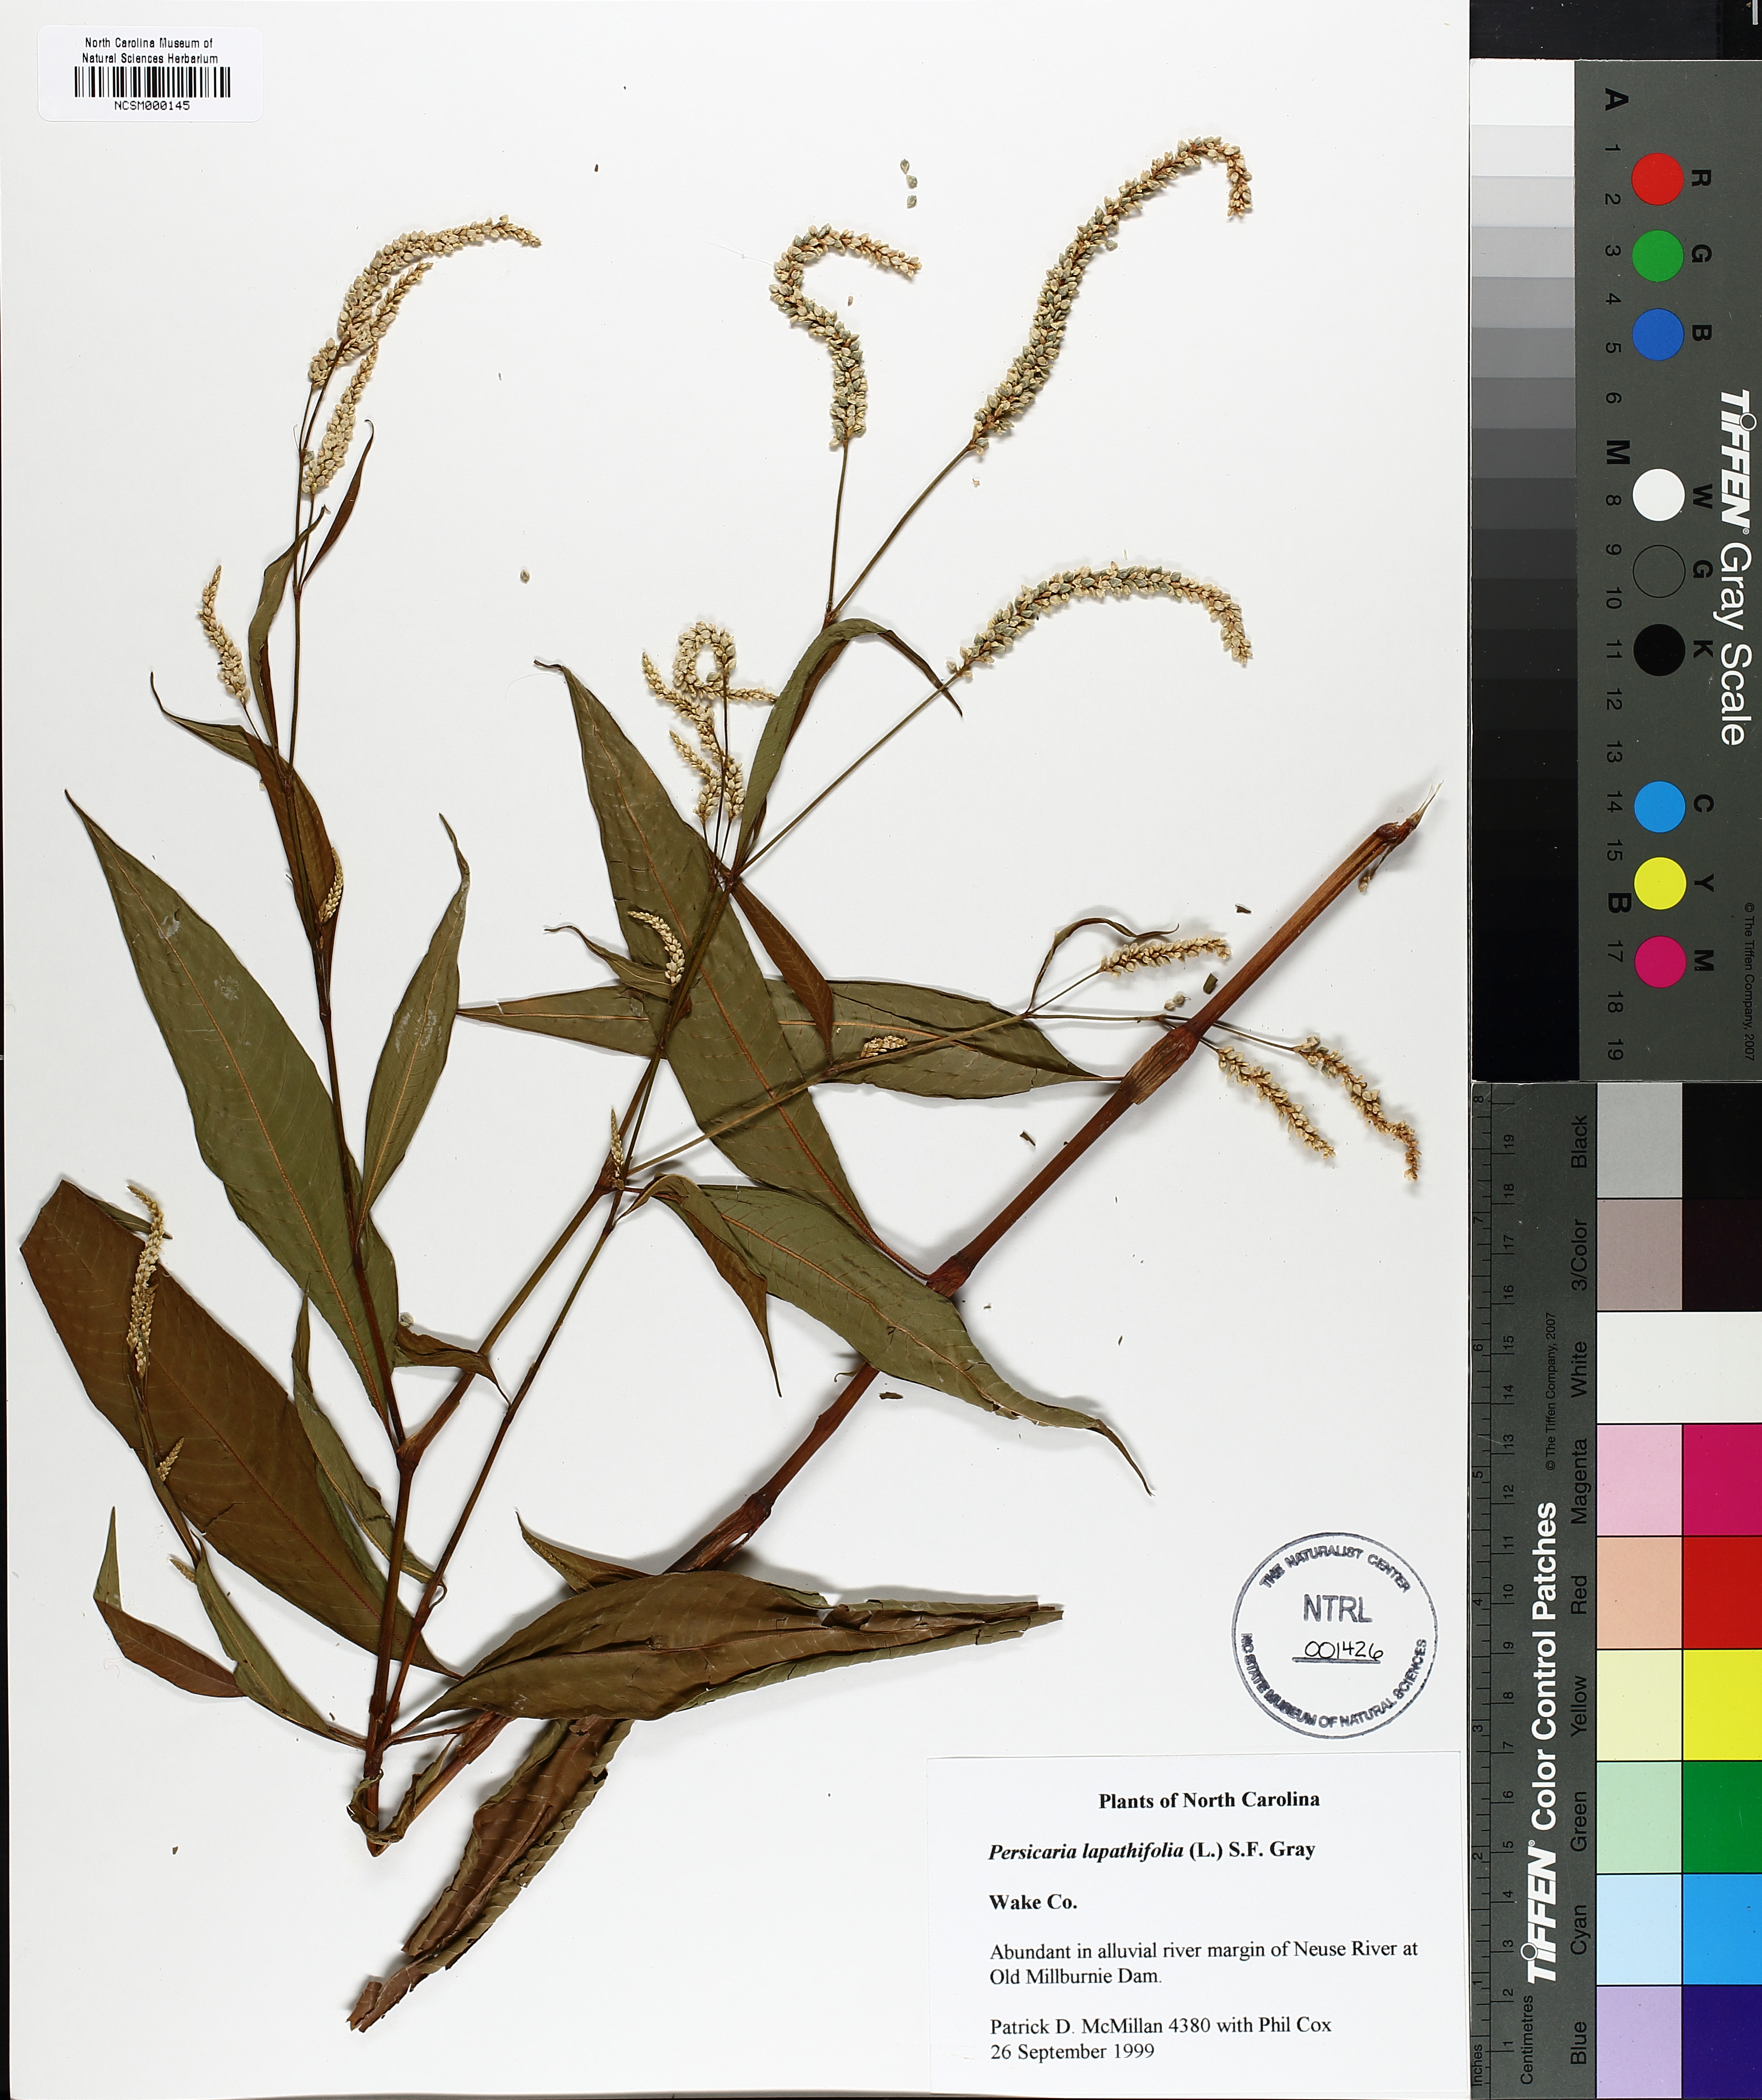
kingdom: Plantae
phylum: Tracheophyta
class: Magnoliopsida
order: Caryophyllales
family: Polygonaceae
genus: Persicaria
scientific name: Persicaria lapathifolia
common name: Curlytop knotweed
